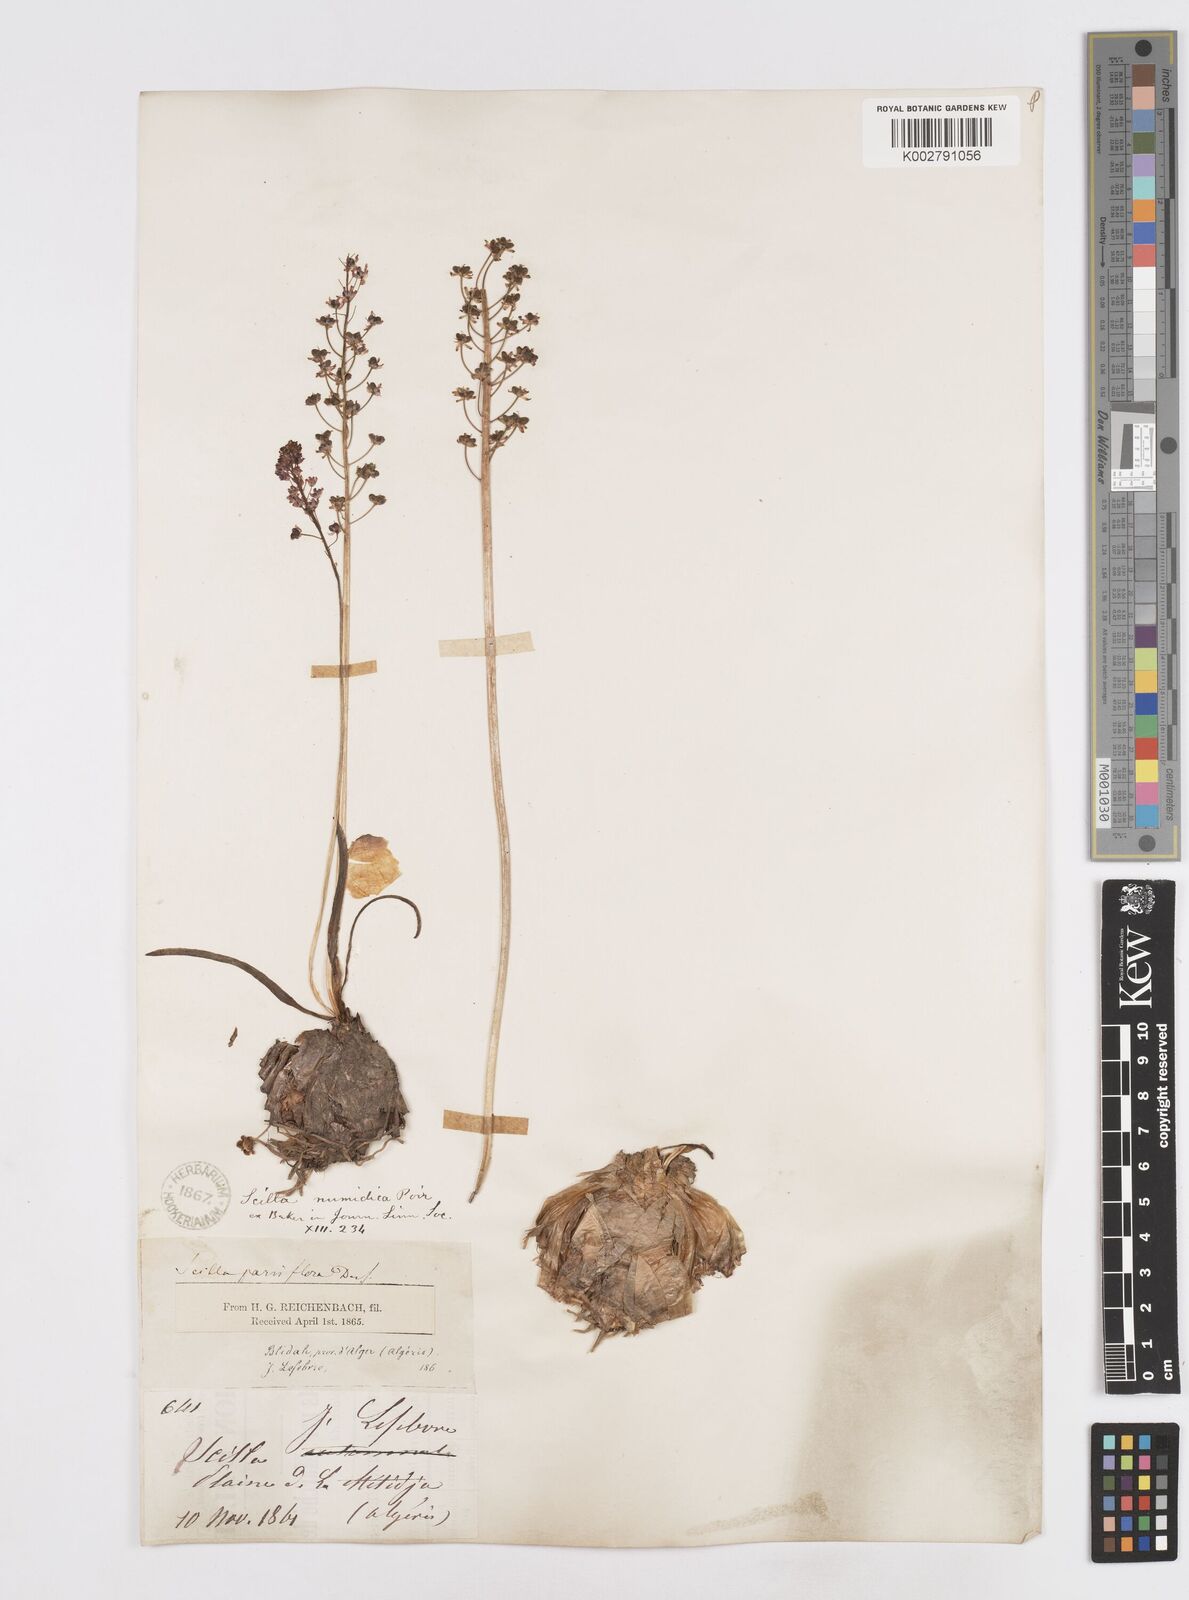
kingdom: Plantae
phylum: Tracheophyta
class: Liliopsida
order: Asparagales
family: Asparagaceae
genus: Barnardia
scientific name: Barnardia numidica
